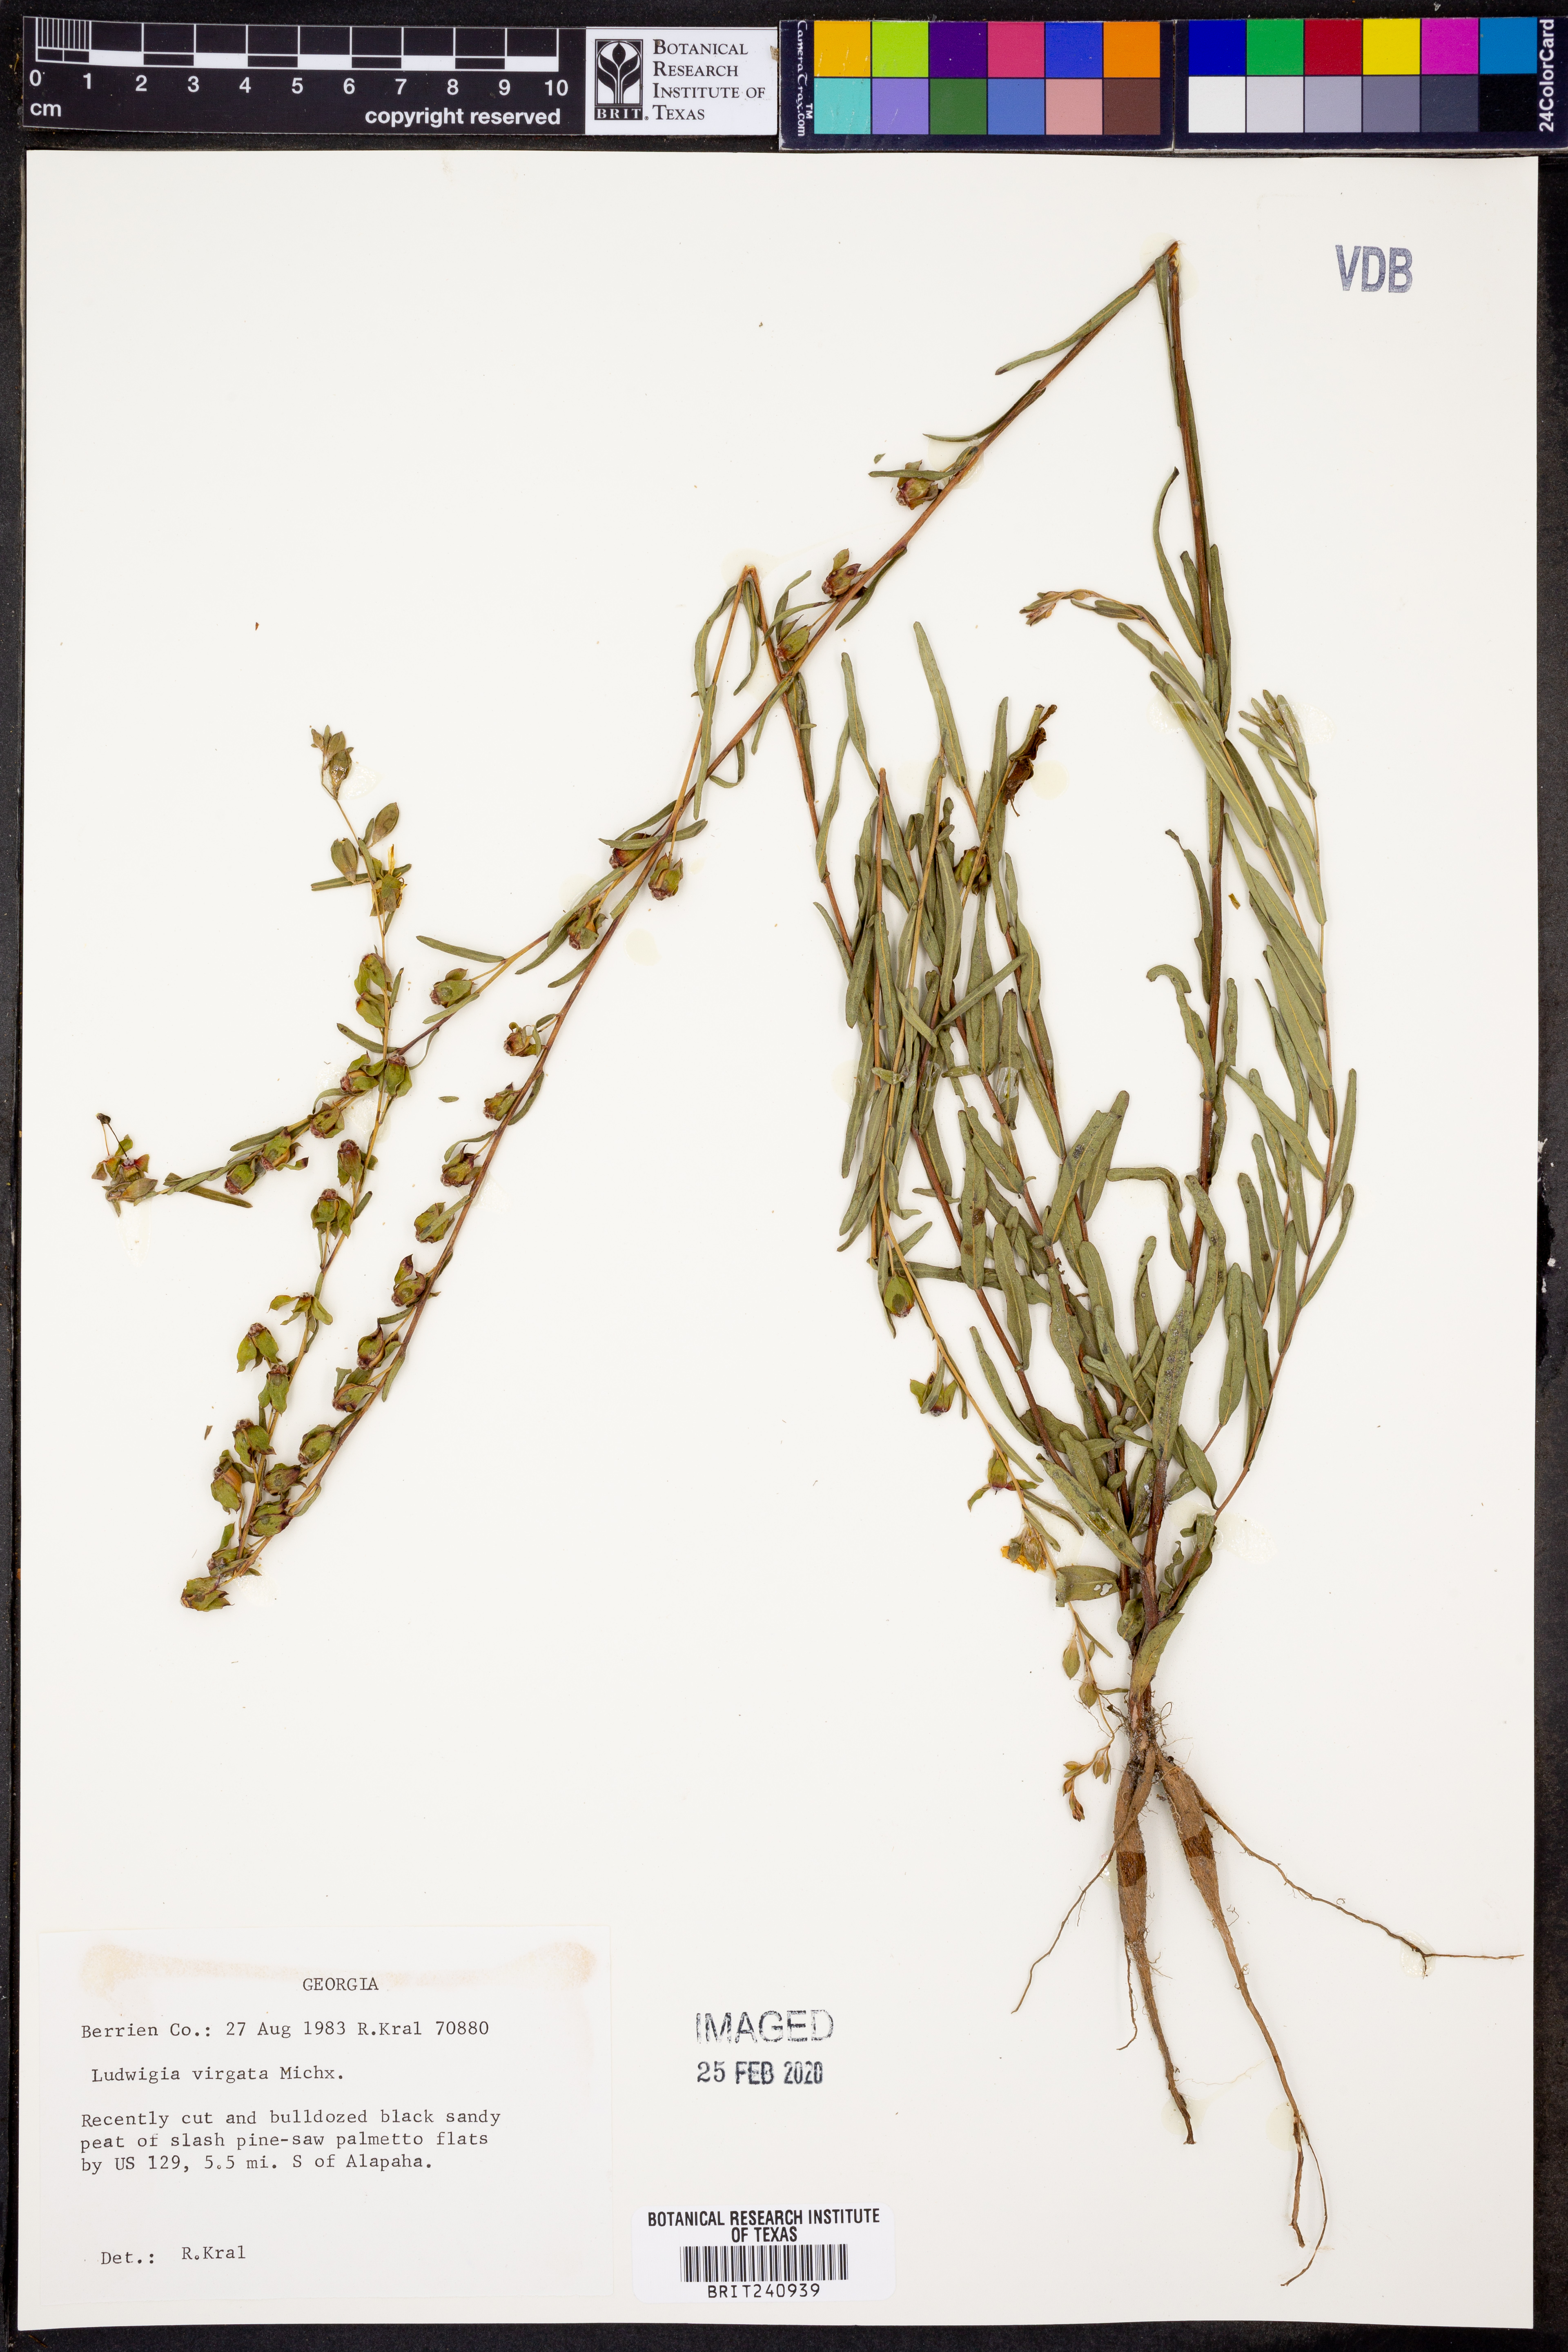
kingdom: Plantae
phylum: Tracheophyta
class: Magnoliopsida
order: Myrtales
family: Onagraceae
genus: Ludwigia
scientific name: Ludwigia virgata
